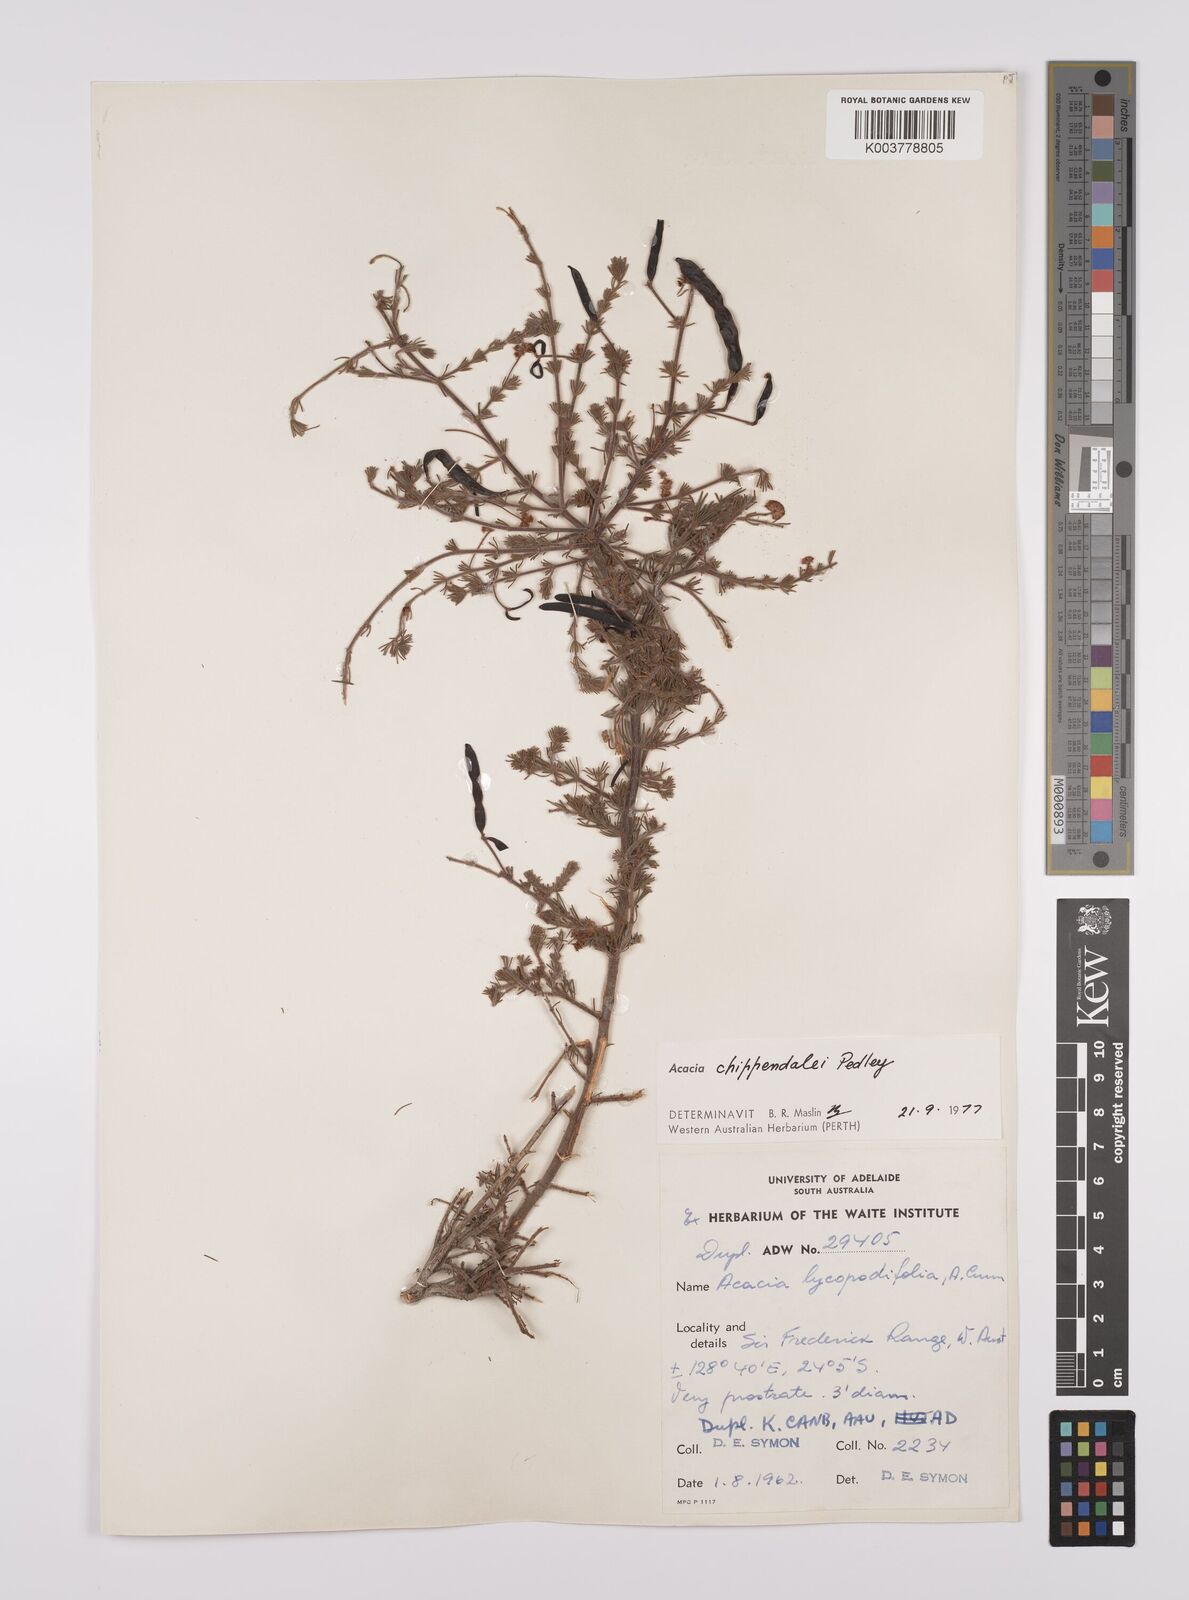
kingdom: Plantae
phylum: Tracheophyta
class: Magnoliopsida
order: Fabales
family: Fabaceae
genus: Acacia
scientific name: Acacia chippendalei
